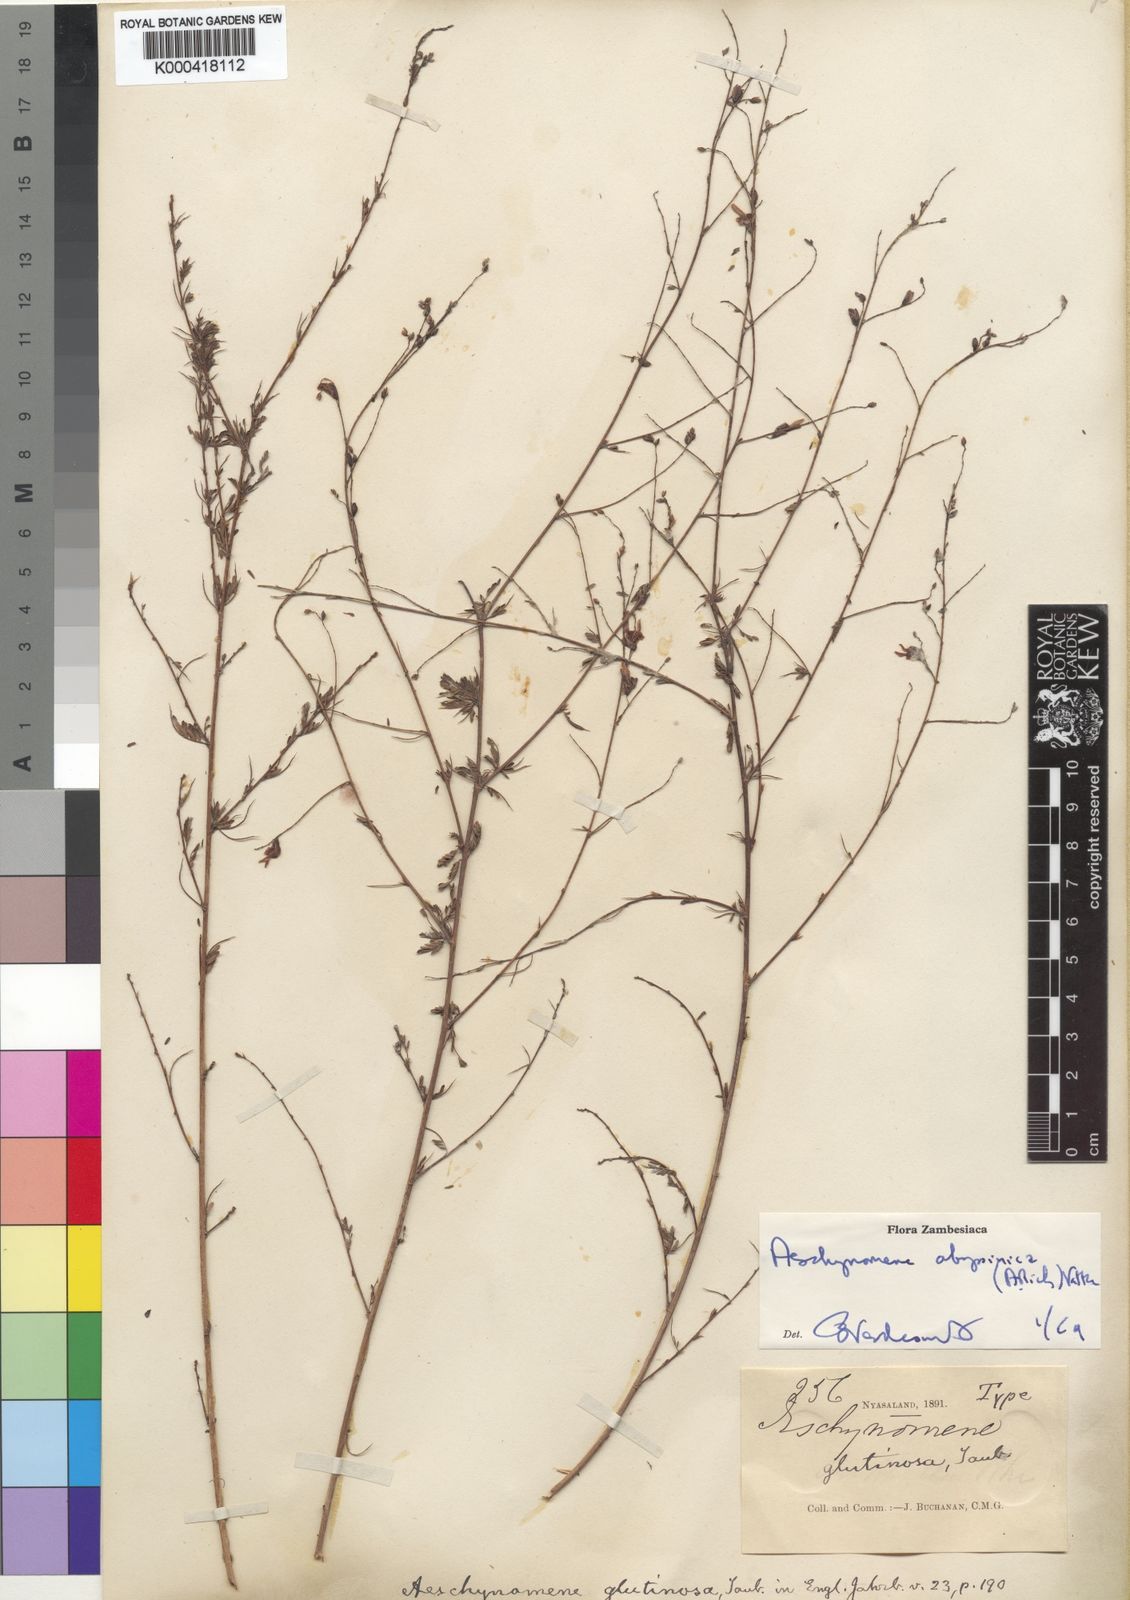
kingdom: Plantae
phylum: Tracheophyta
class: Magnoliopsida
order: Fabales
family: Fabaceae
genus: Aeschynomene
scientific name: Aeschynomene abyssinica
